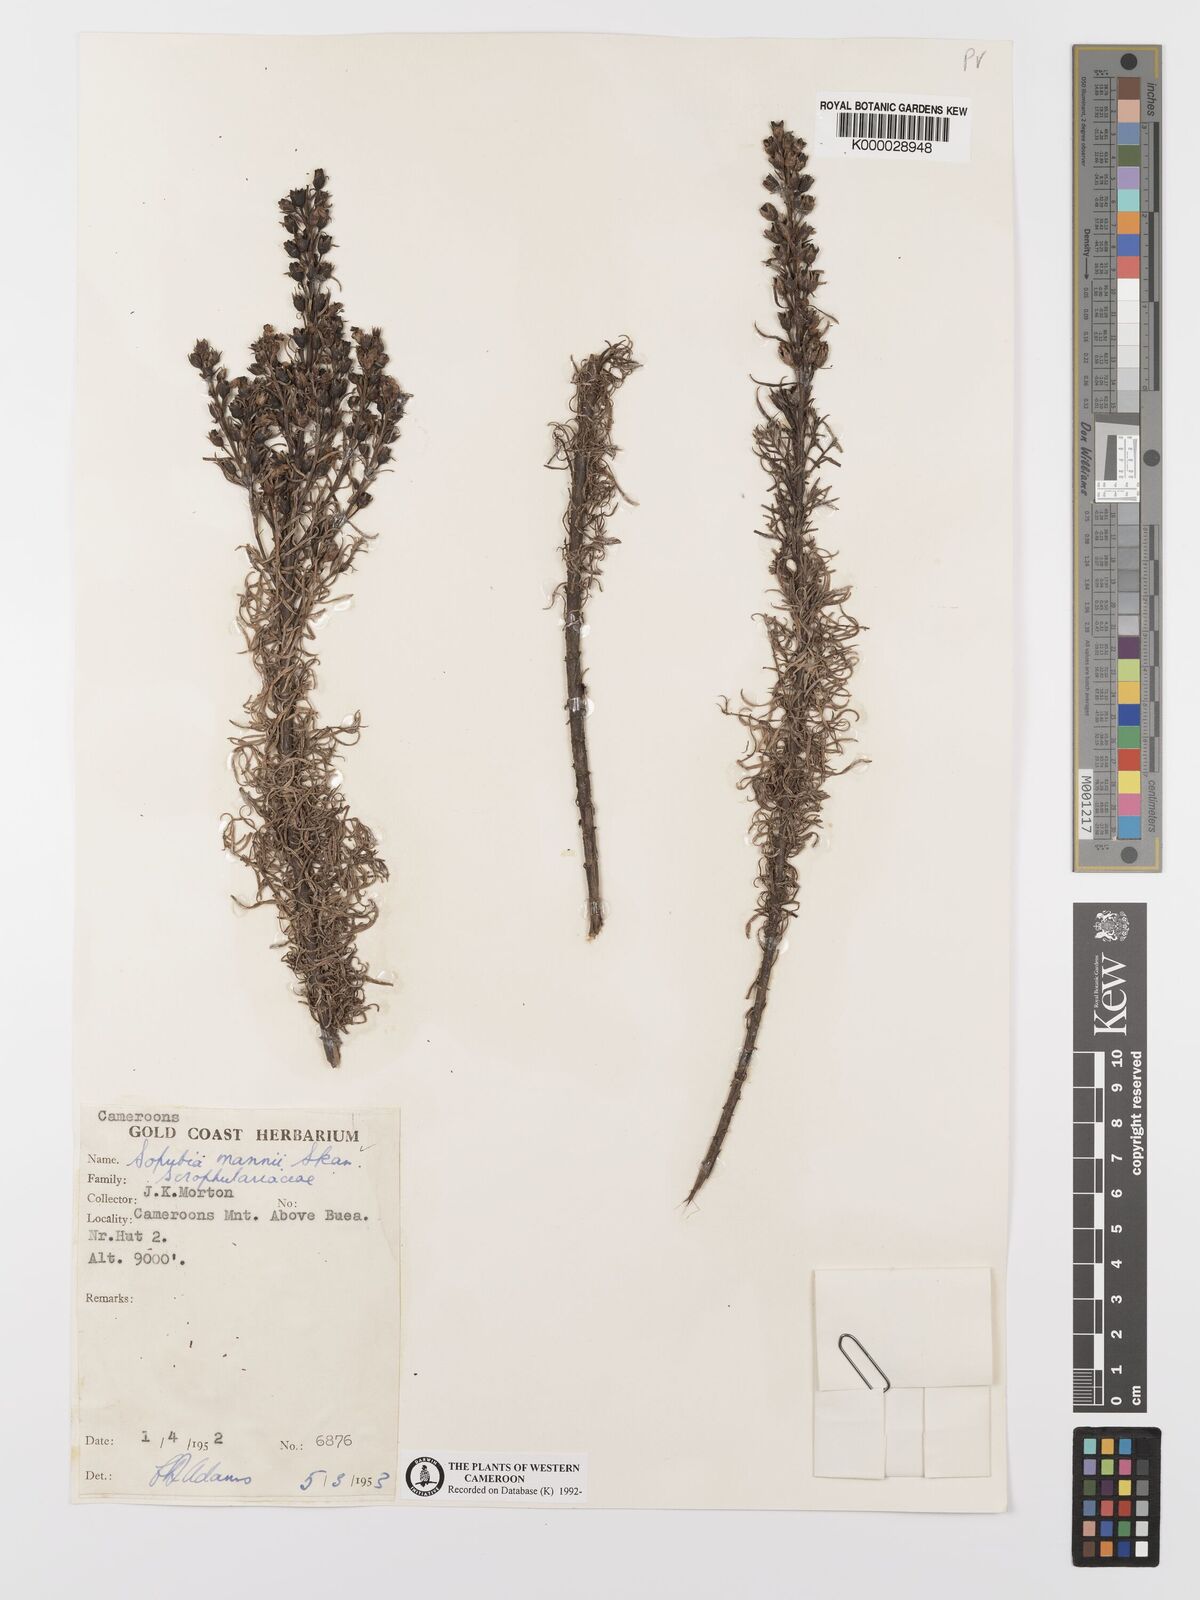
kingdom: Plantae
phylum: Tracheophyta
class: Magnoliopsida
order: Lamiales
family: Orobanchaceae
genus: Sopubia
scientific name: Sopubia mannii
